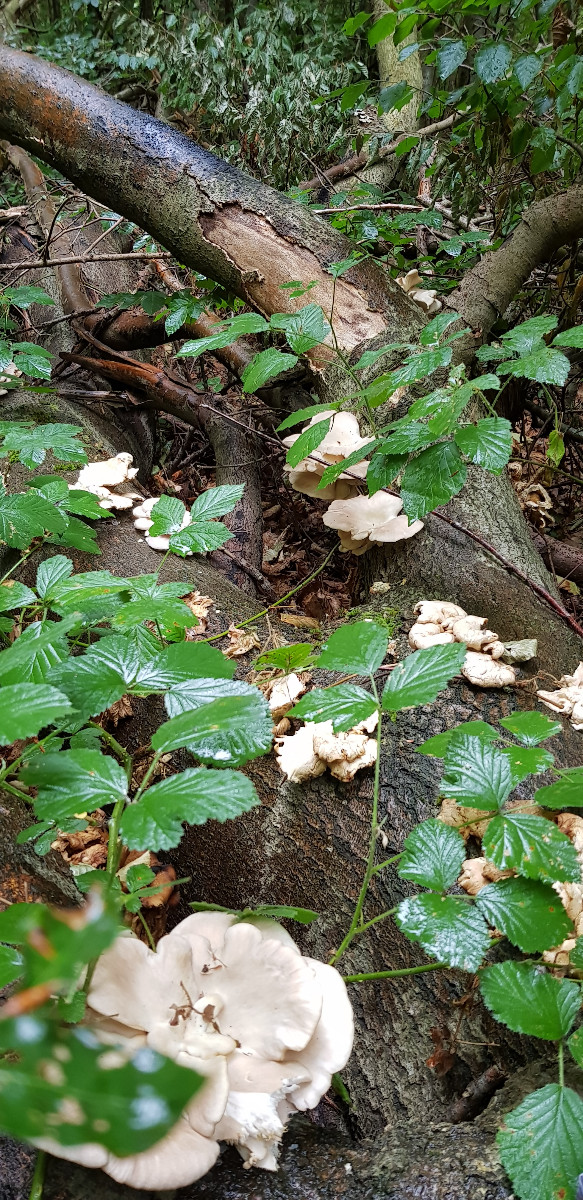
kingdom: Fungi
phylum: Basidiomycota
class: Agaricomycetes
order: Agaricales
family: Pleurotaceae
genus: Pleurotus
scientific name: Pleurotus pulmonarius
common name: sommer-østershat
